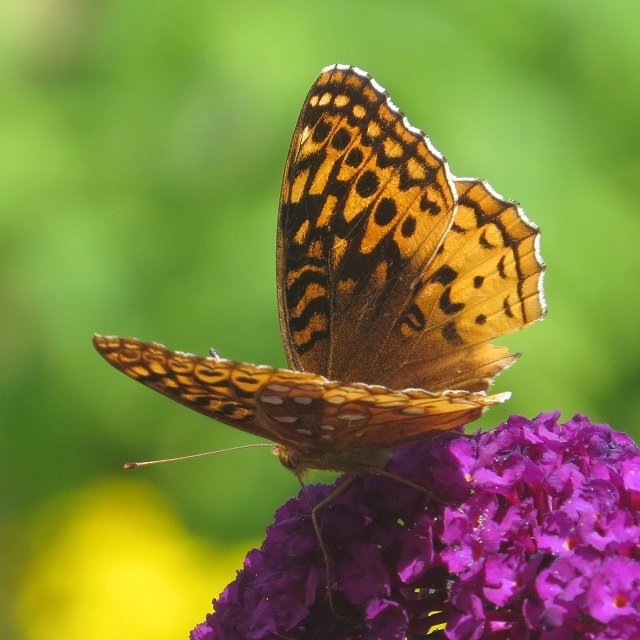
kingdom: Animalia
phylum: Arthropoda
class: Insecta
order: Lepidoptera
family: Nymphalidae
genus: Speyeria
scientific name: Speyeria cybele
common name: Great Spangled Fritillary
